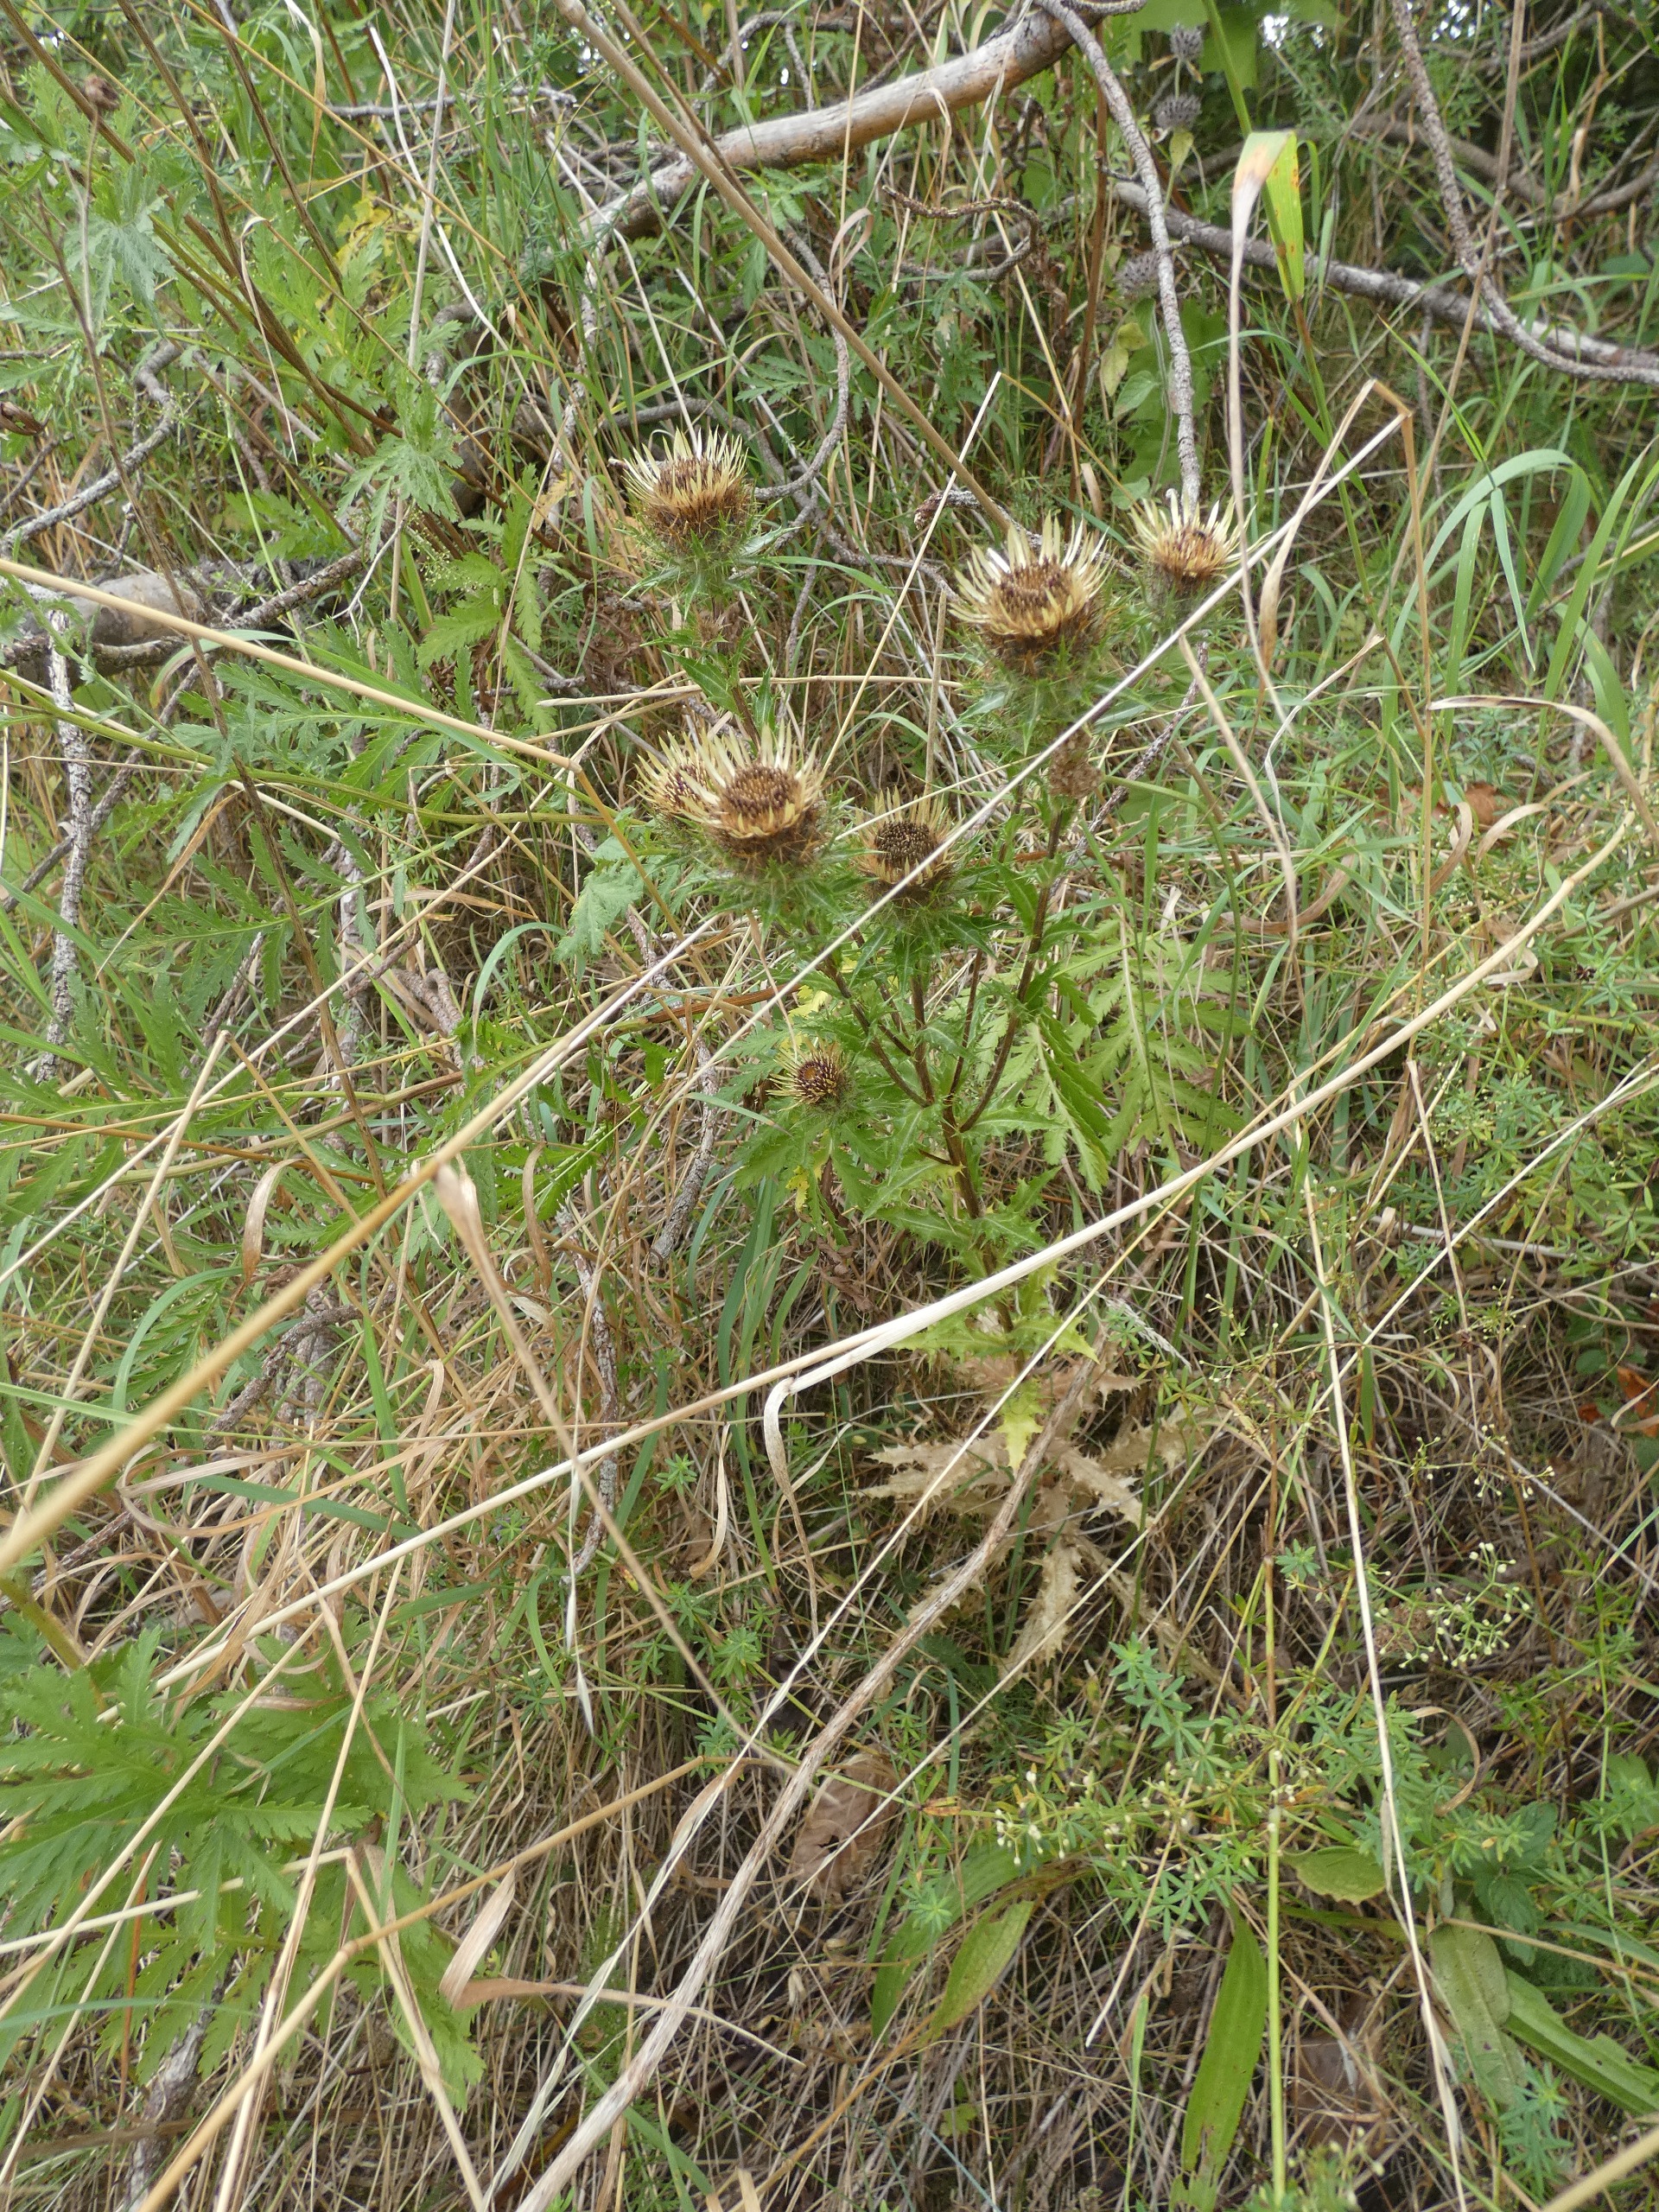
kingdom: Plantae
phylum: Tracheophyta
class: Magnoliopsida
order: Asterales
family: Asteraceae
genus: Carlina
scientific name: Carlina vulgaris
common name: Bakketidsel
